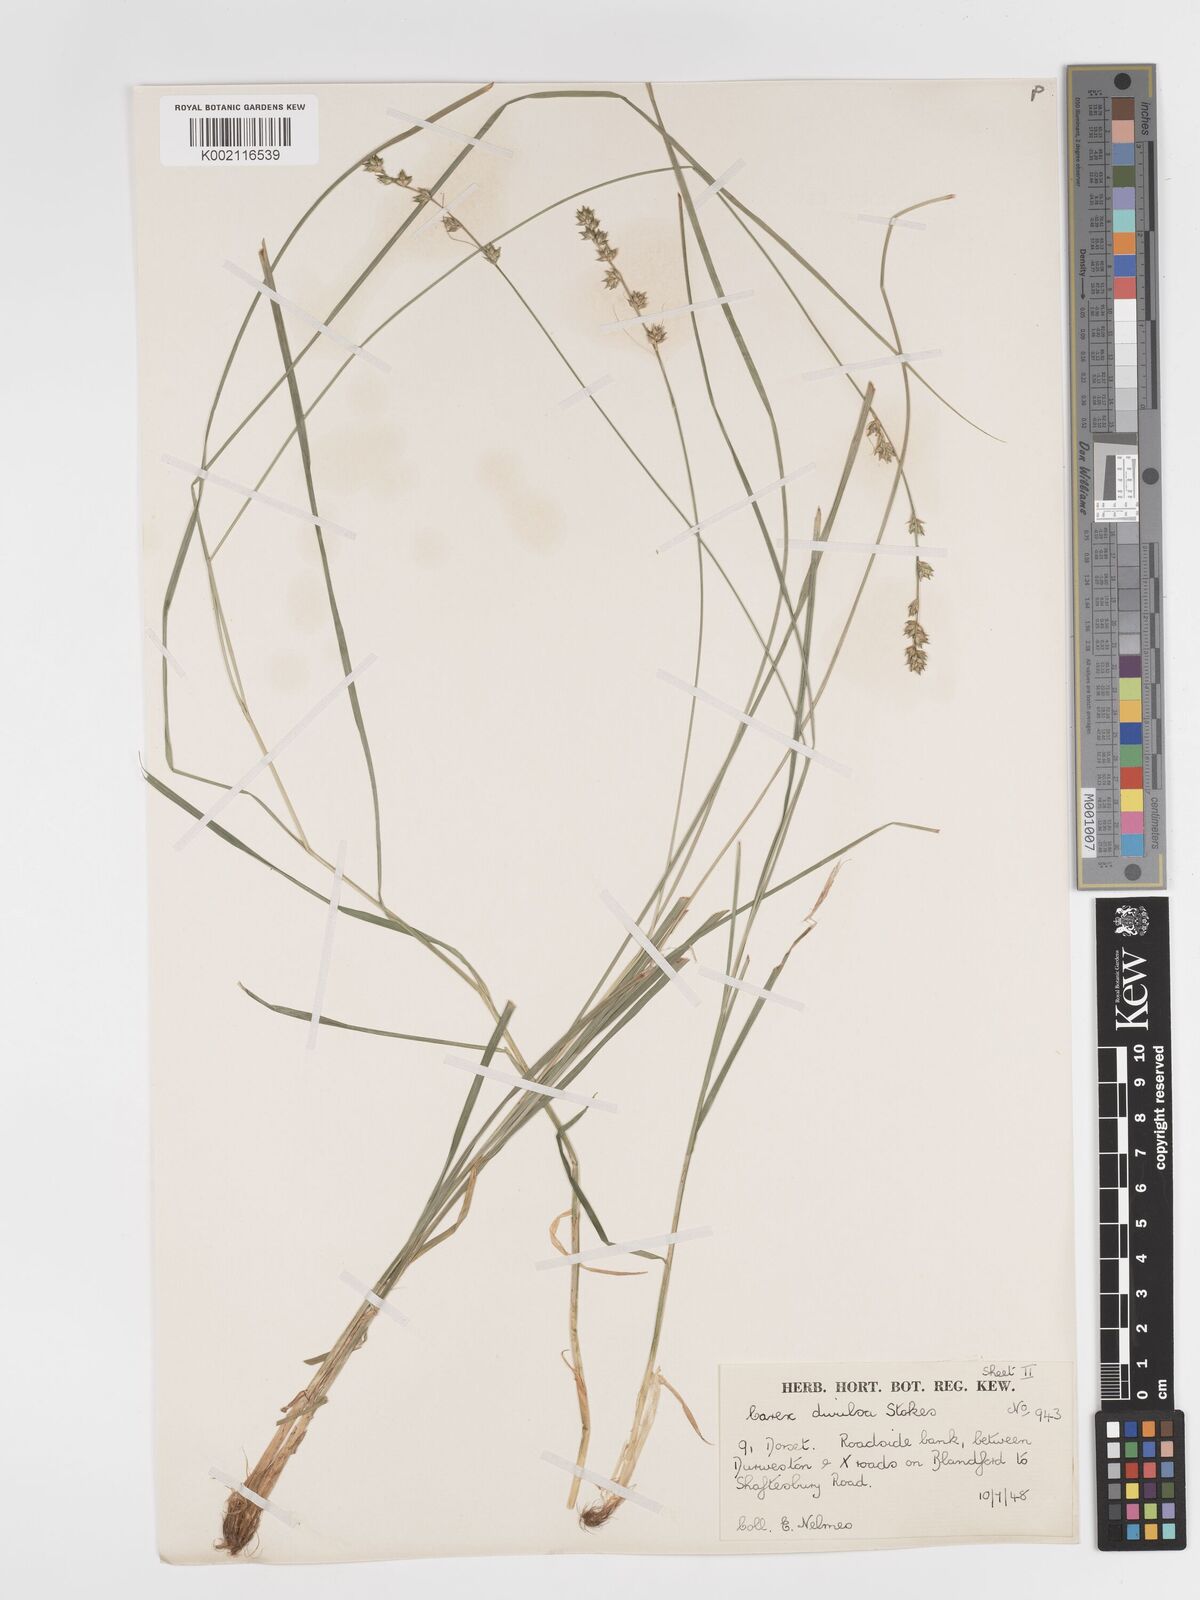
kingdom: Plantae
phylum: Tracheophyta
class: Liliopsida
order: Poales
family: Cyperaceae
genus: Carex
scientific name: Carex divulsa
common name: Grassland sedge
